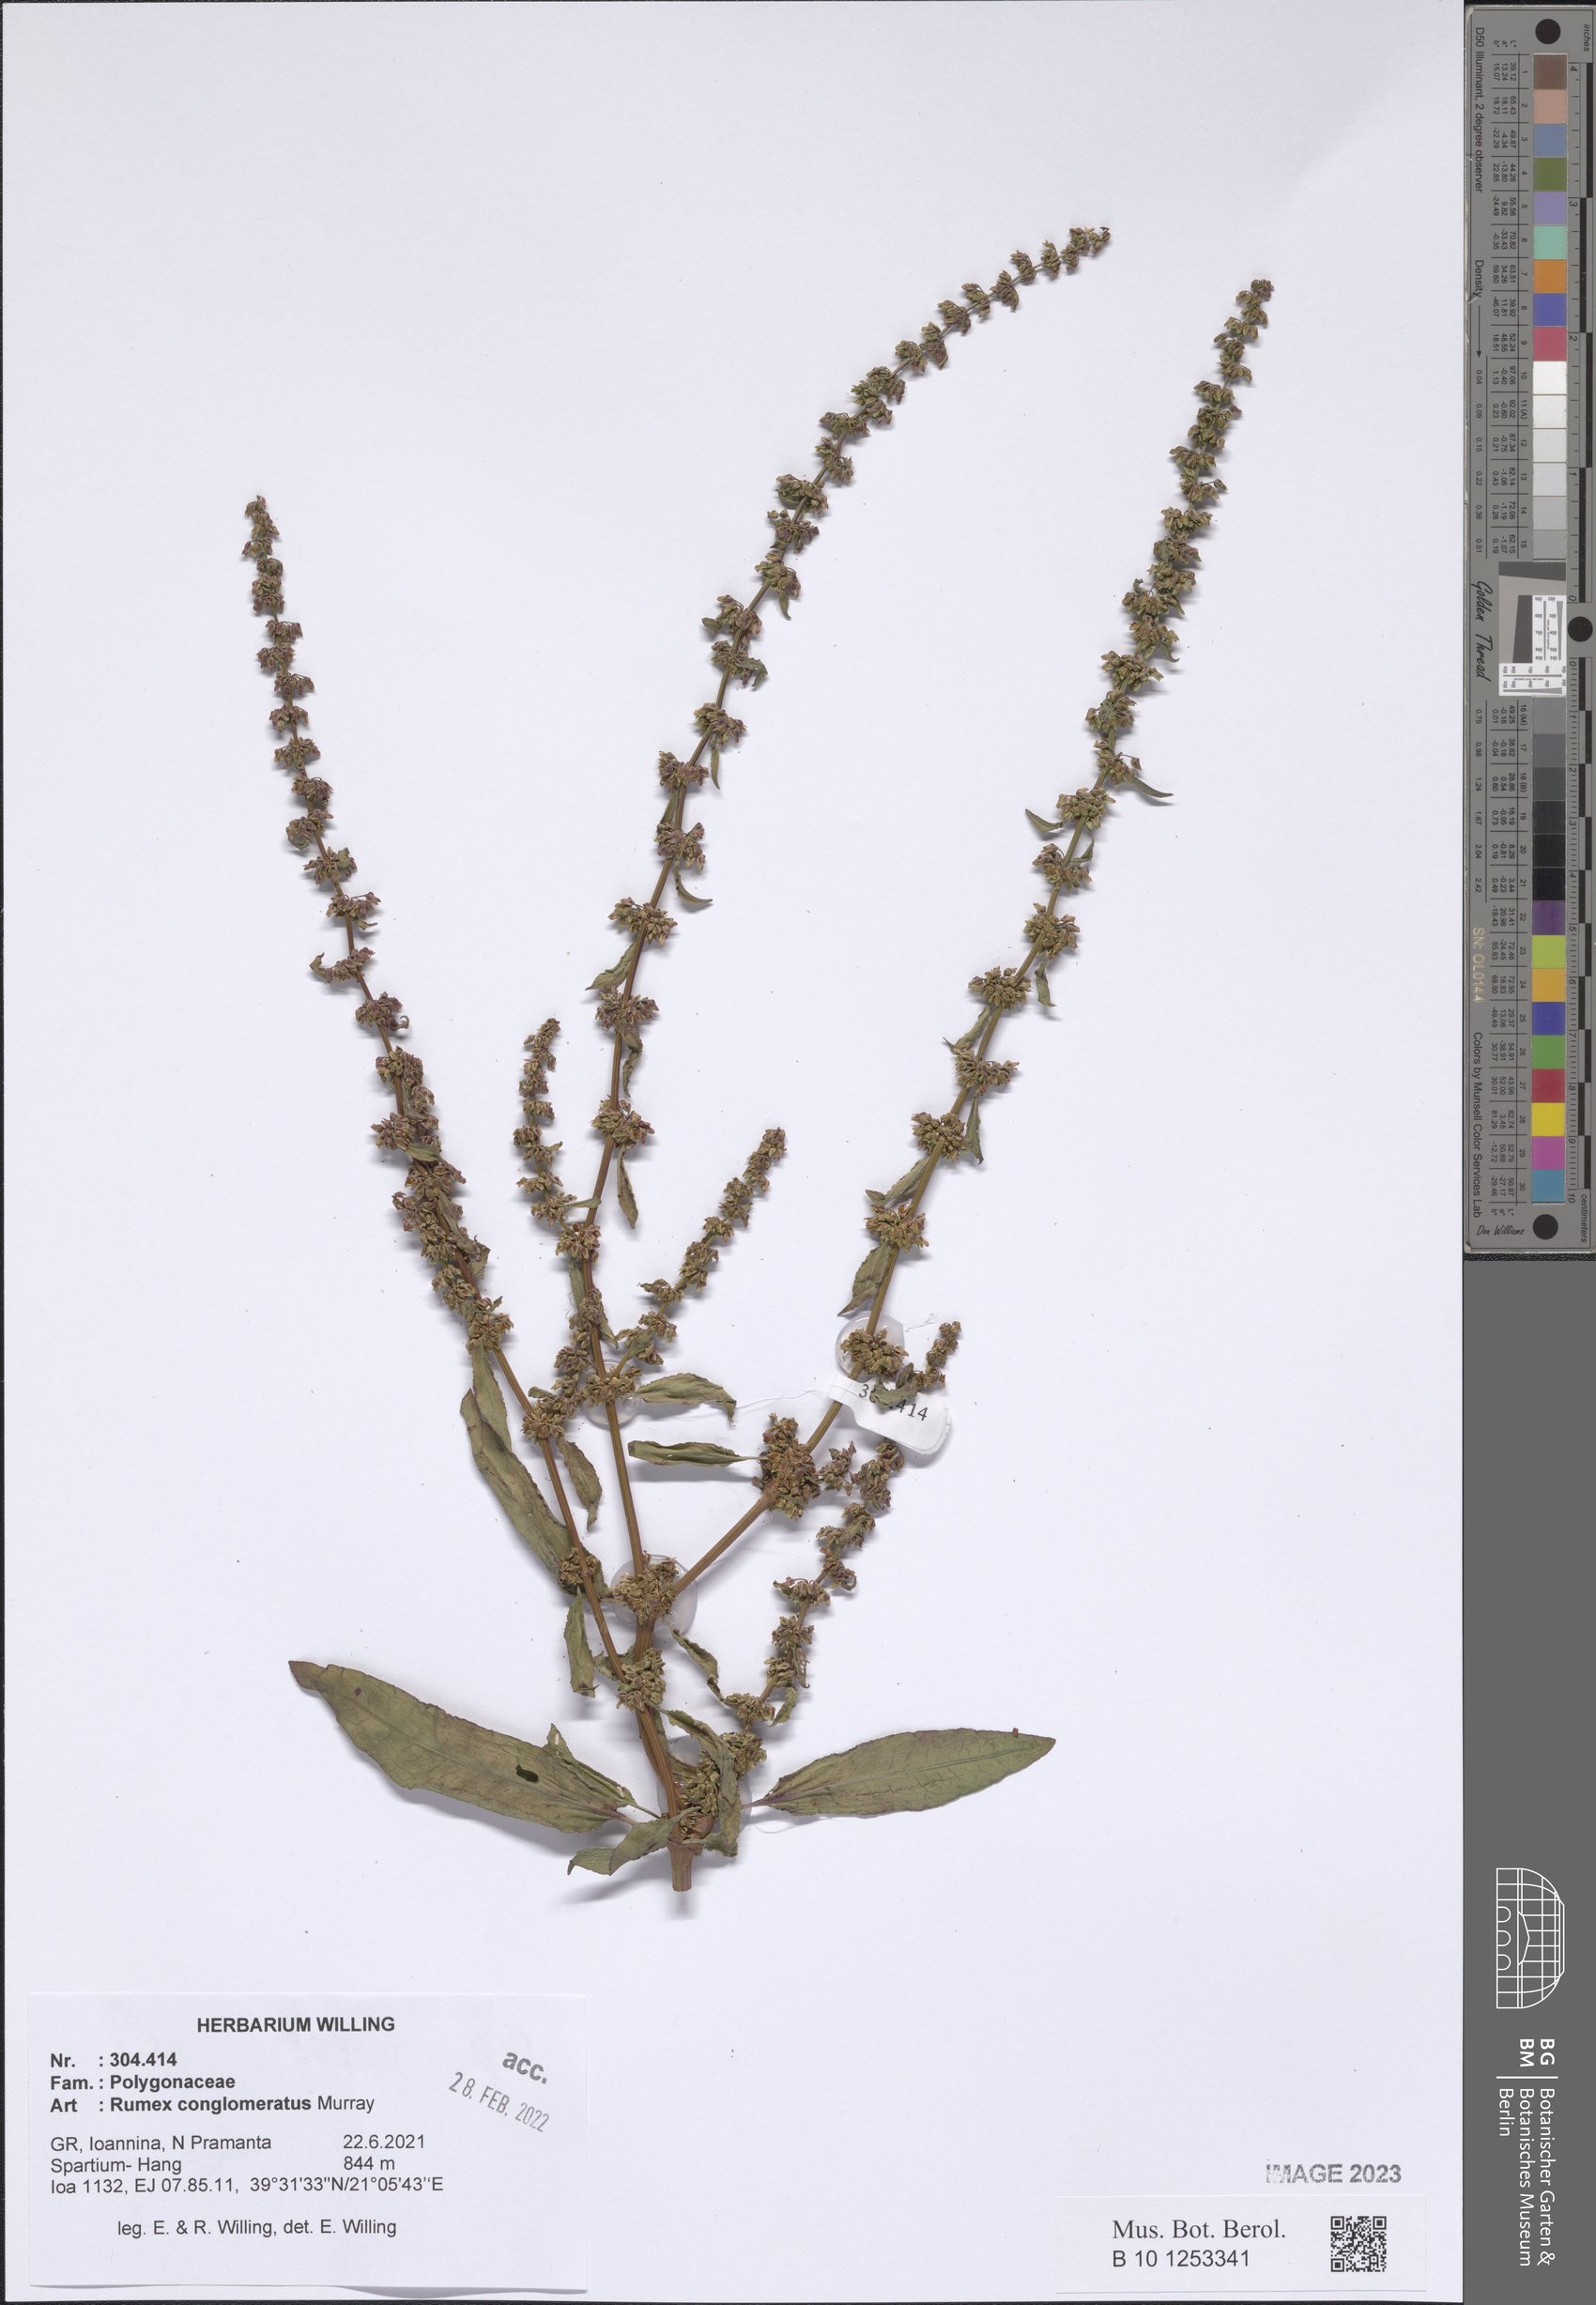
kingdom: Plantae
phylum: Tracheophyta
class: Magnoliopsida
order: Caryophyllales
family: Polygonaceae
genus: Rumex
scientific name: Rumex conglomeratus
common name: Clustered dock
